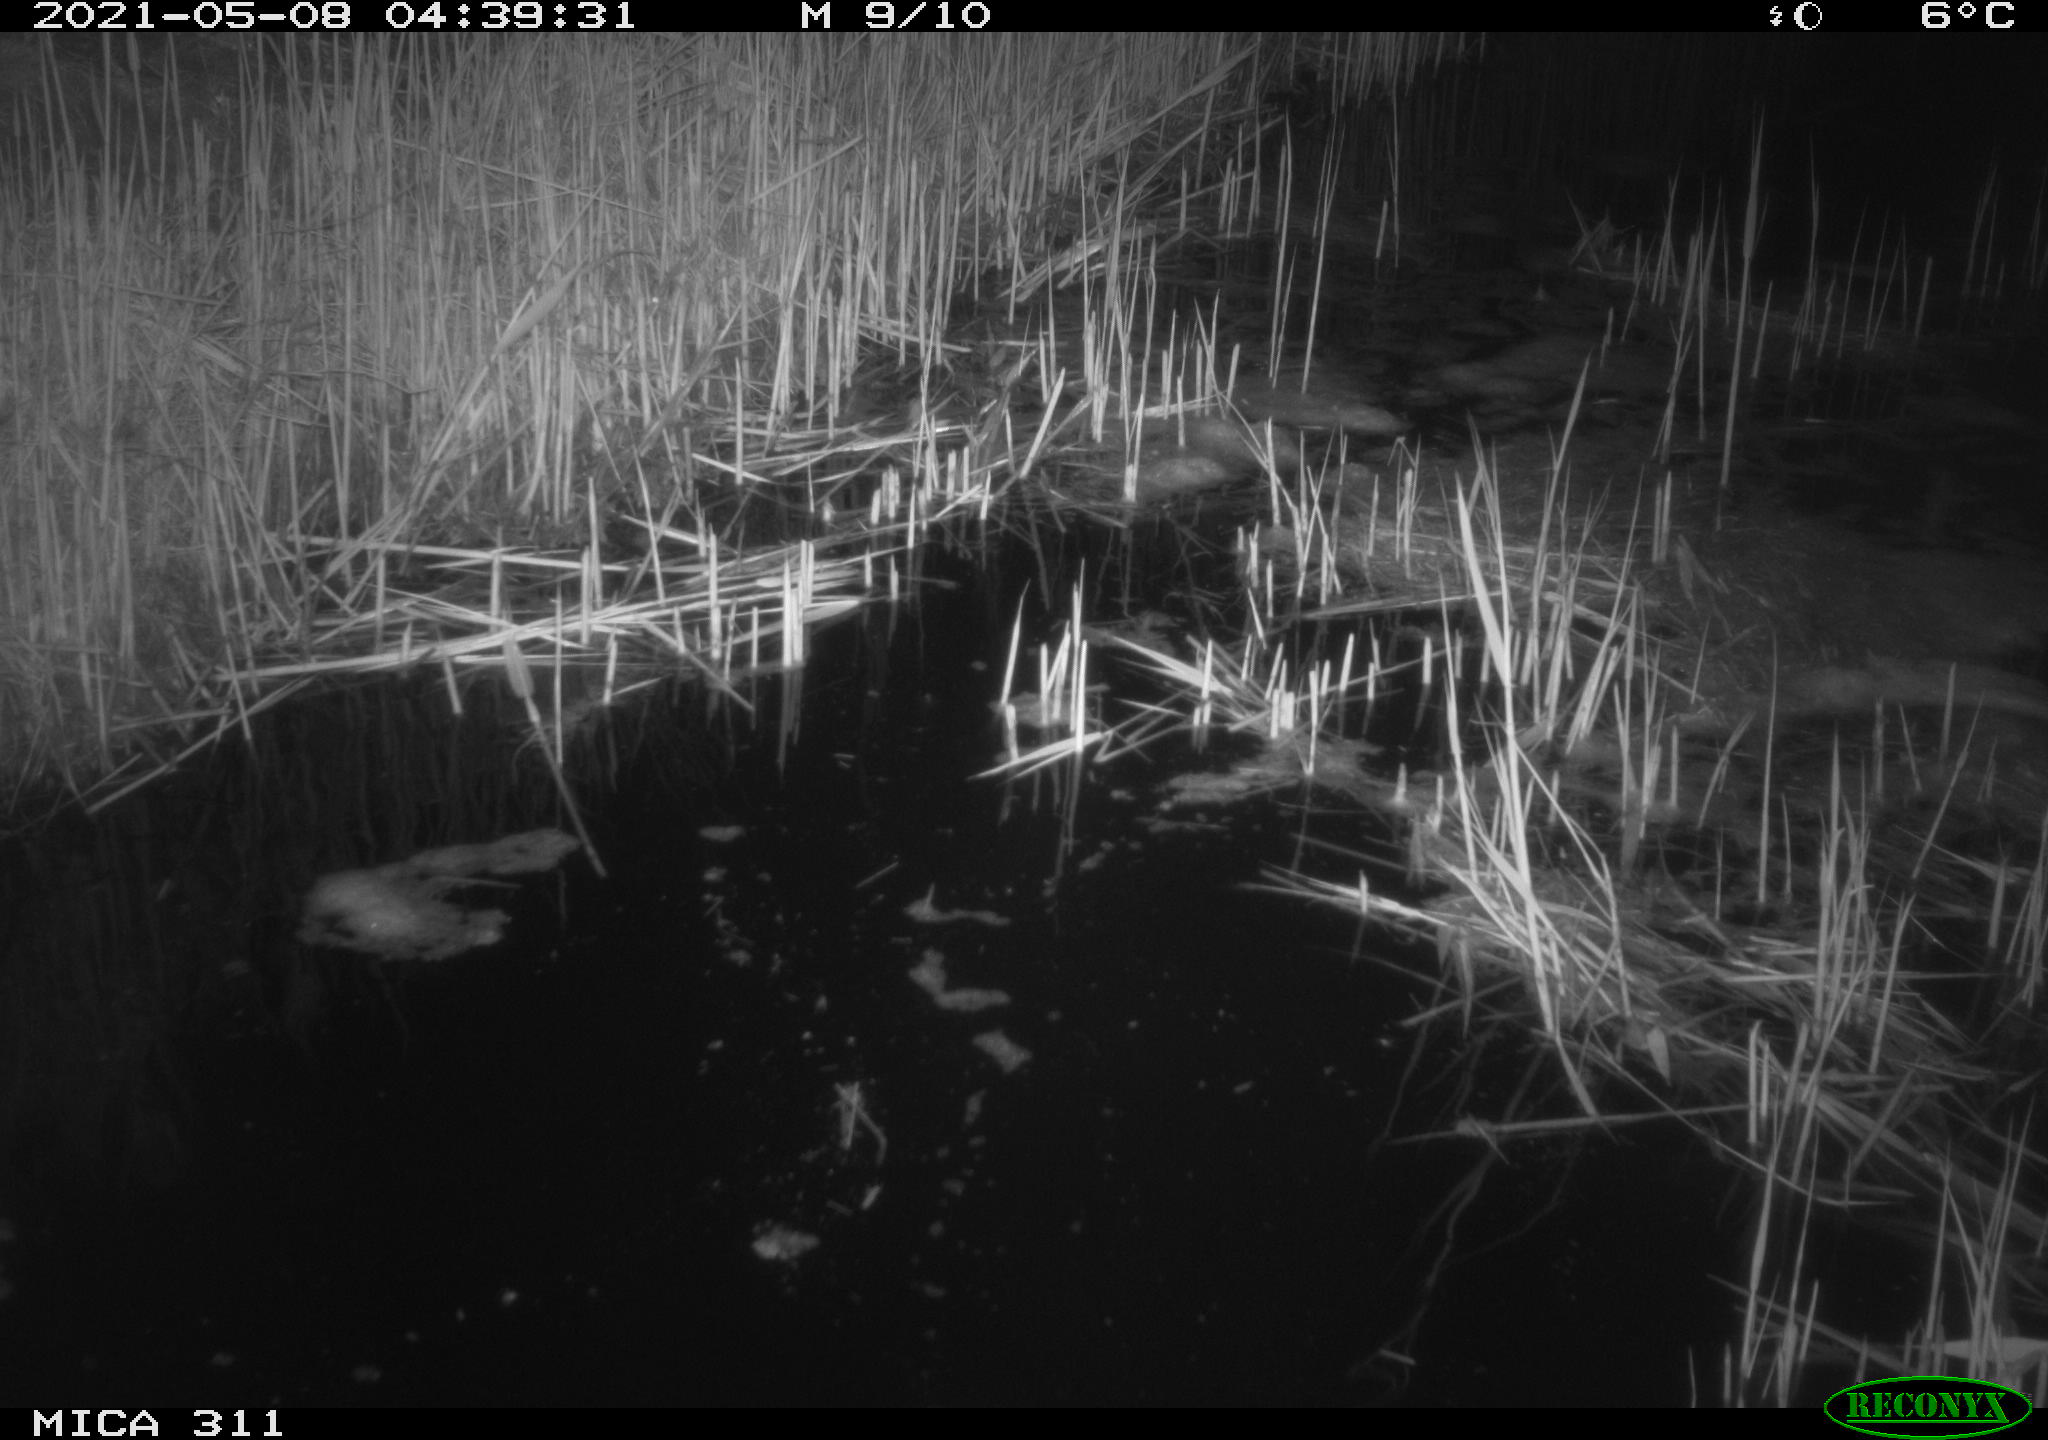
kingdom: Animalia
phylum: Chordata
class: Aves
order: Anseriformes
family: Anatidae
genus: Anas
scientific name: Anas platyrhynchos
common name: Mallard
